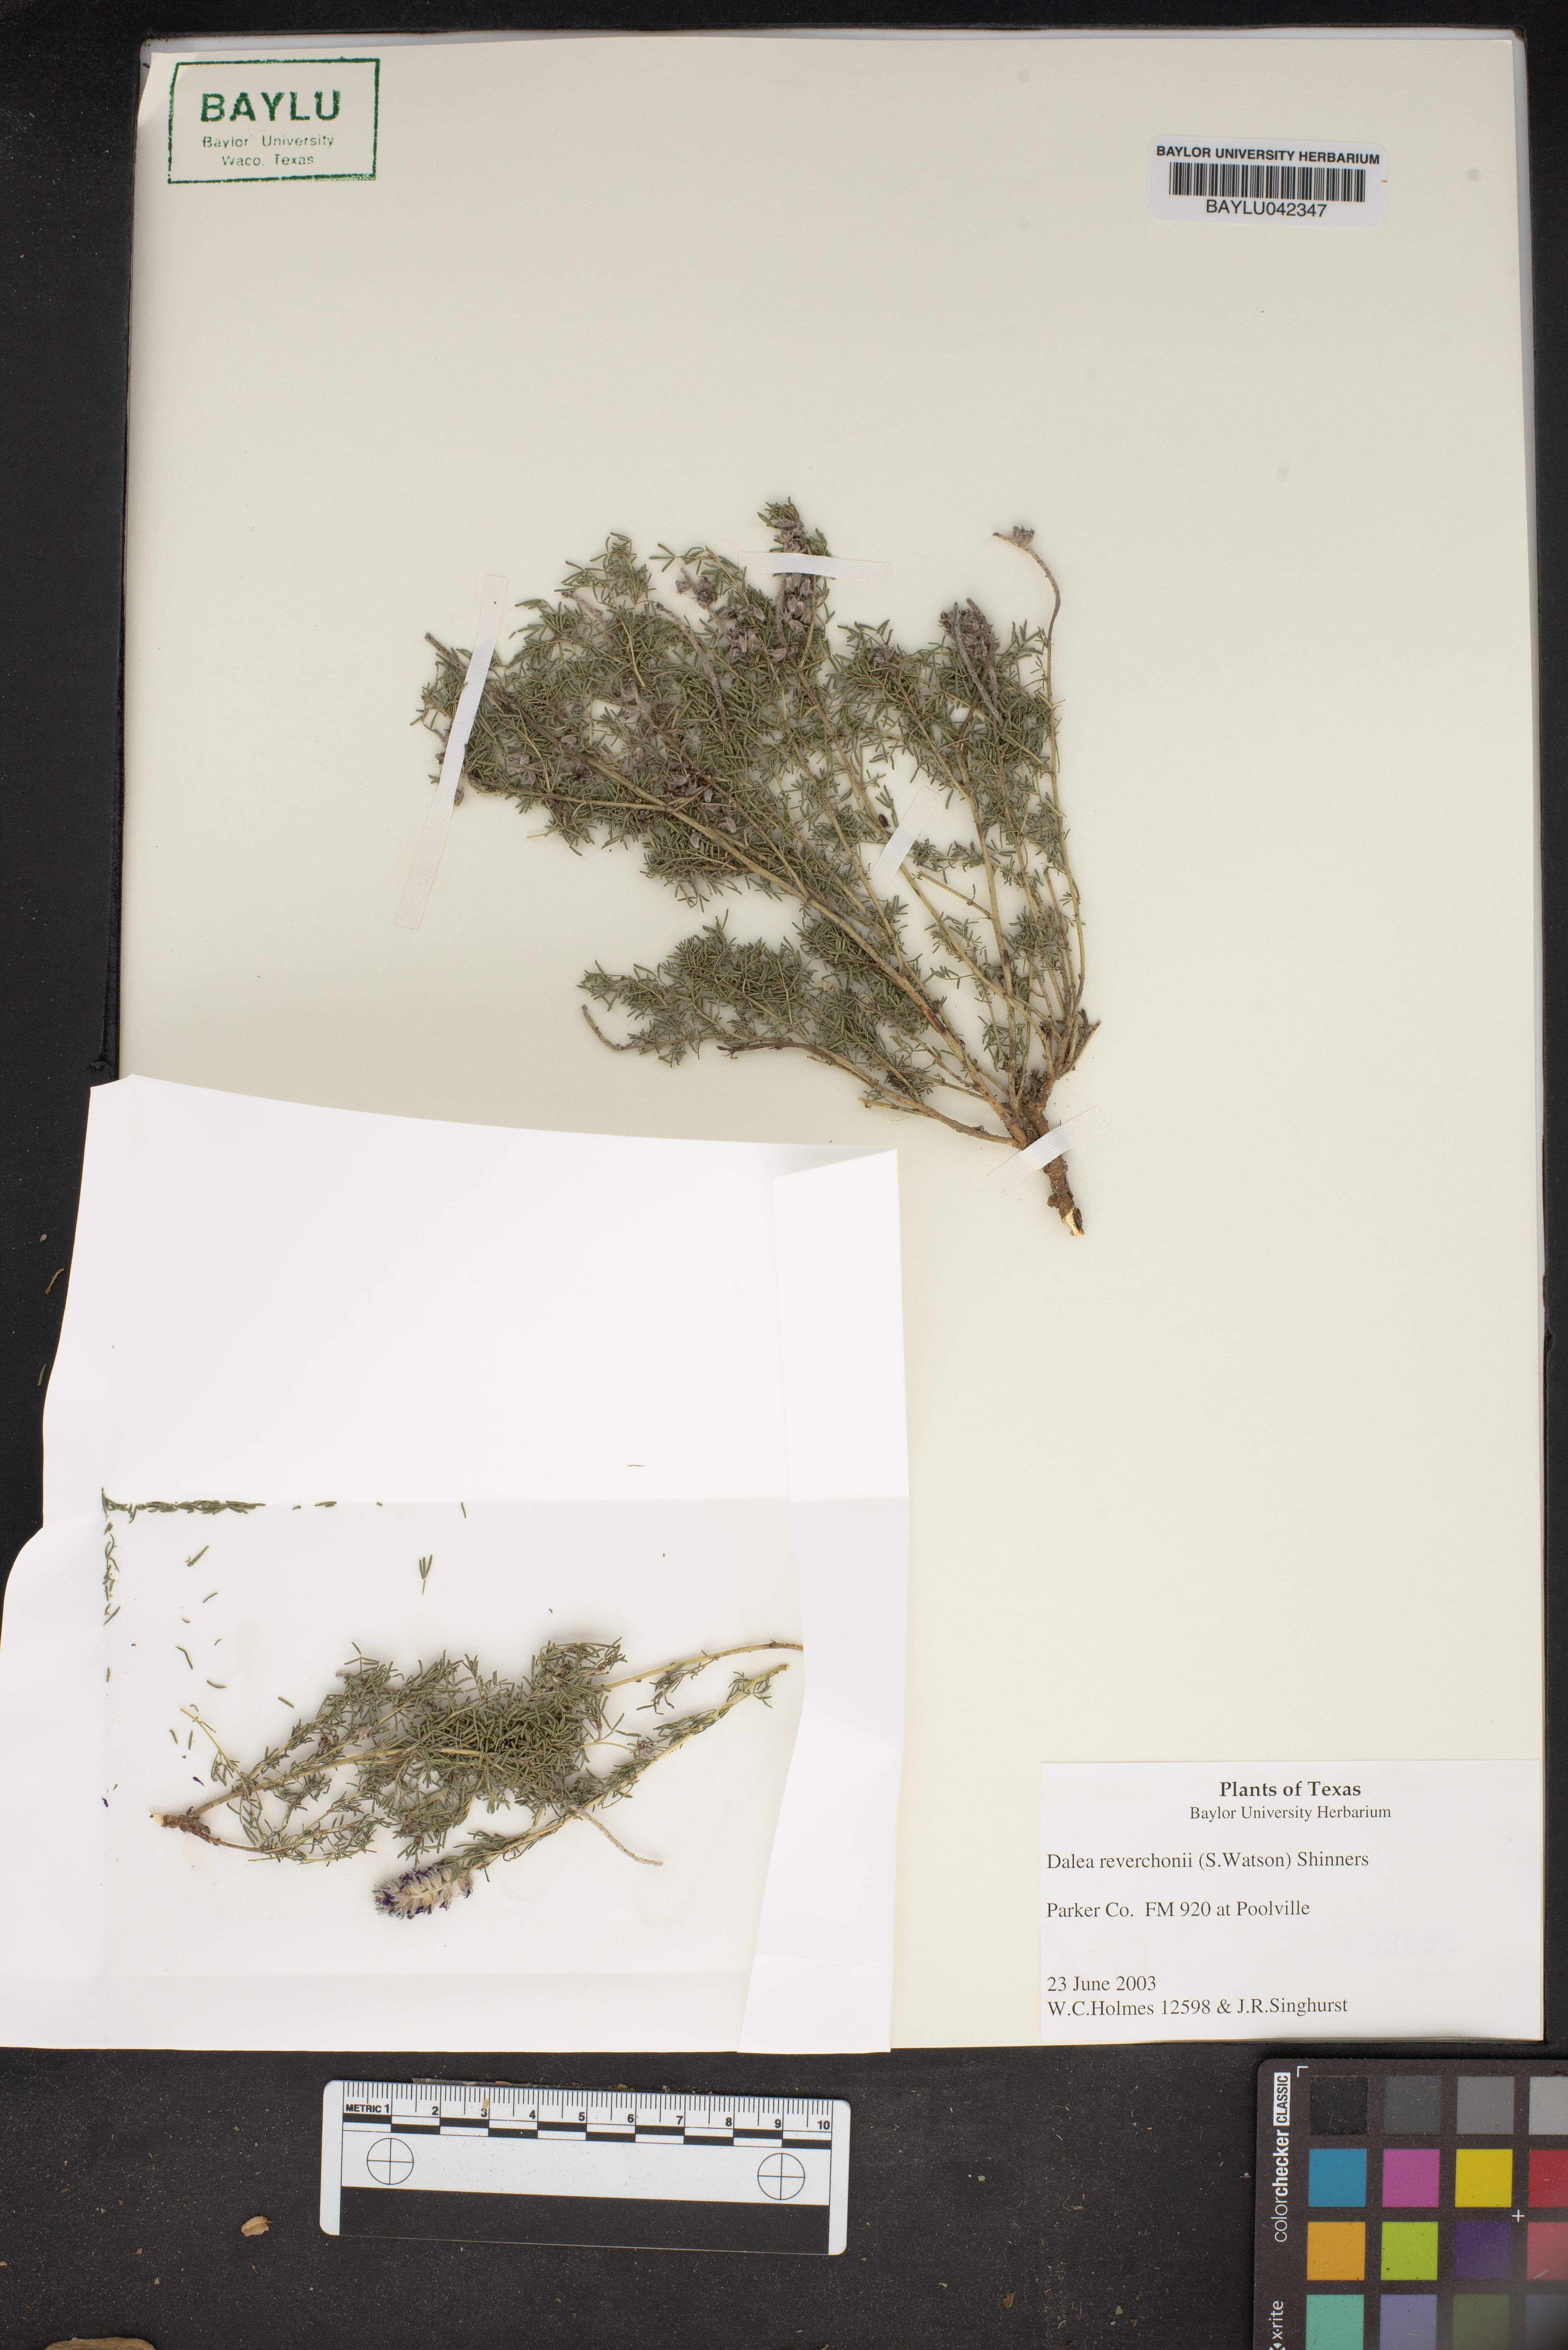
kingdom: Plantae
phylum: Tracheophyta
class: Magnoliopsida
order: Fabales
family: Fabaceae
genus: Dalea
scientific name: Dalea reverchonii
